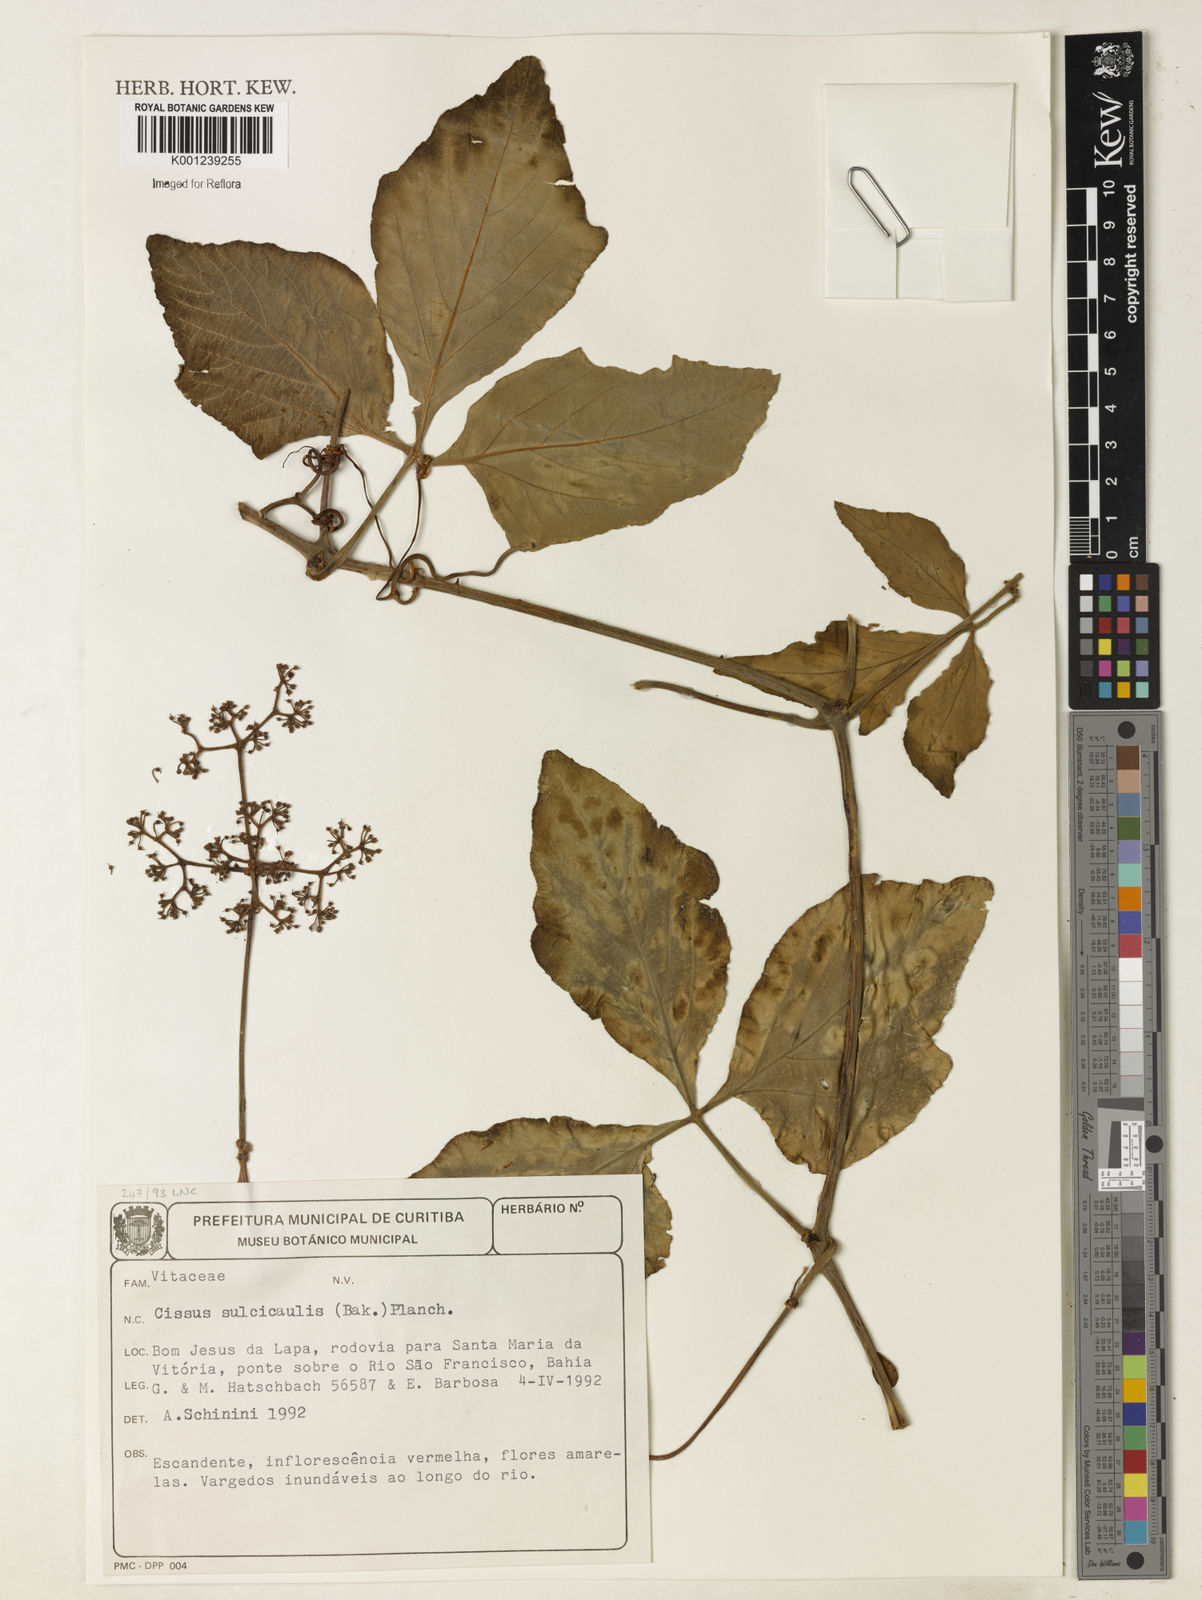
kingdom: Plantae
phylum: Tracheophyta
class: Magnoliopsida
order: Vitales
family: Vitaceae
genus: Cissus
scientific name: Cissus sulcicaulis
